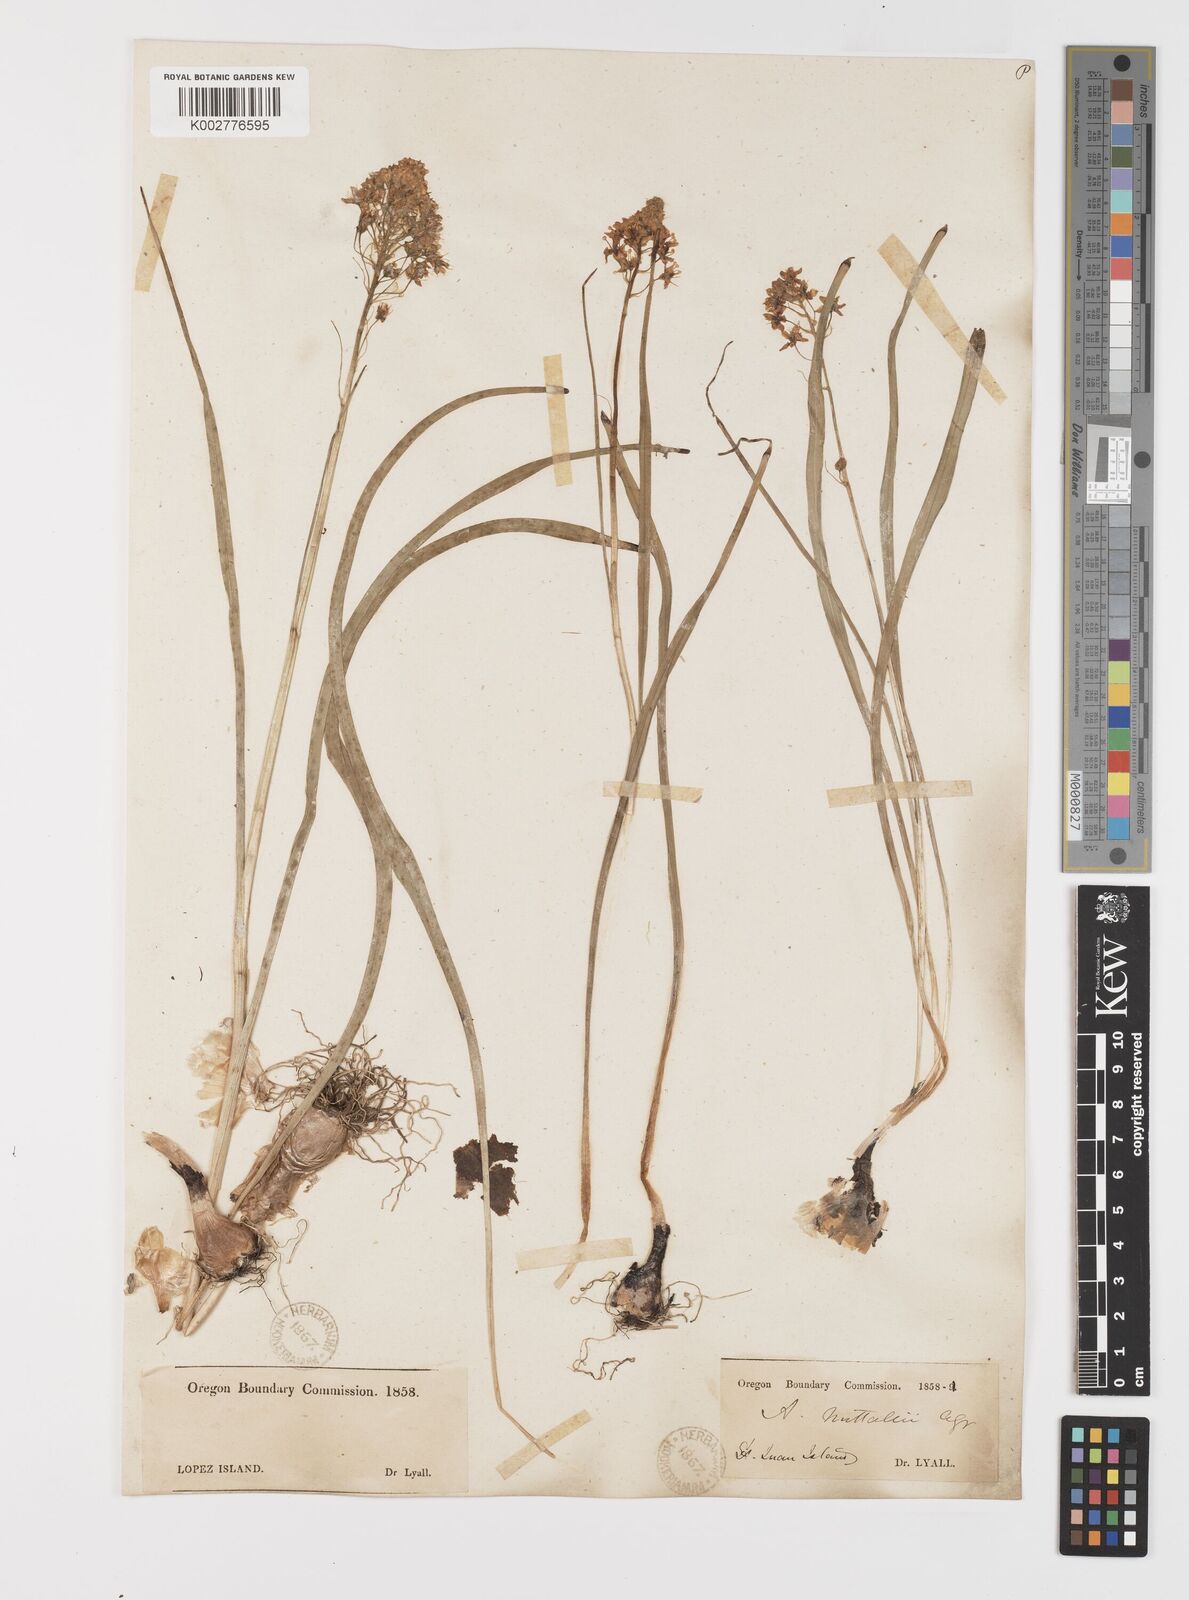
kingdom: Plantae
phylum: Tracheophyta
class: Liliopsida
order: Liliales
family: Melanthiaceae
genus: Toxicoscordion
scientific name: Toxicoscordion nuttallii
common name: Poison sego
